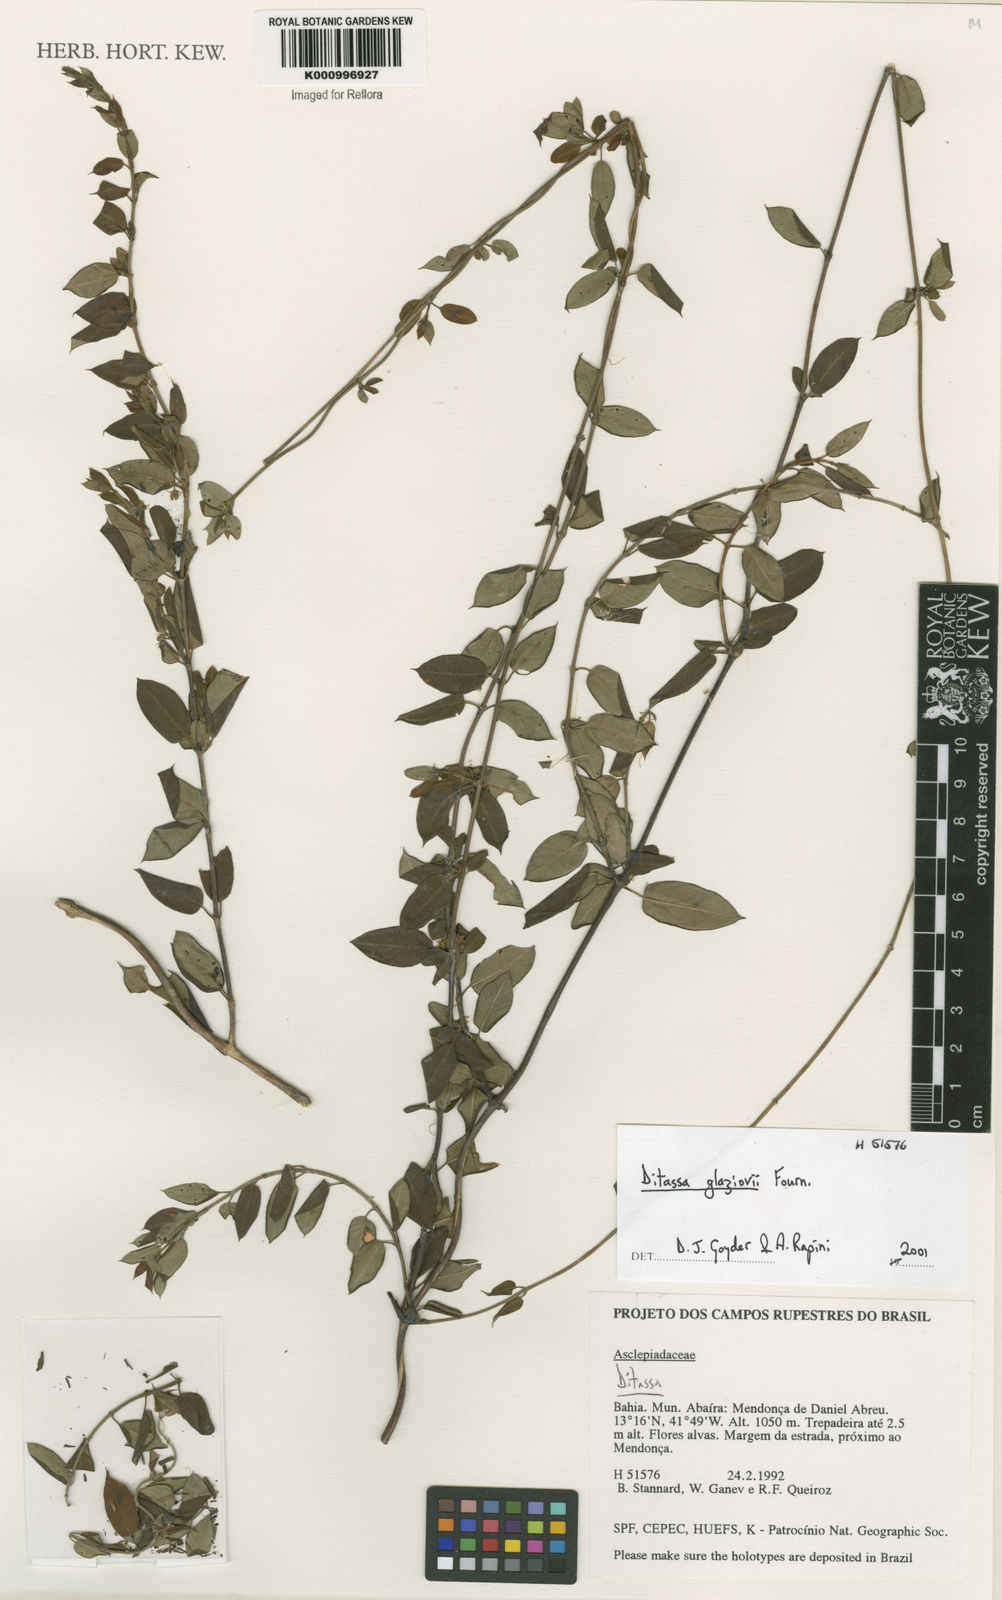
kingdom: Plantae
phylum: Tracheophyta
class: Magnoliopsida
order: Gentianales
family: Apocynaceae
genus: Ditassa
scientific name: Ditassa
